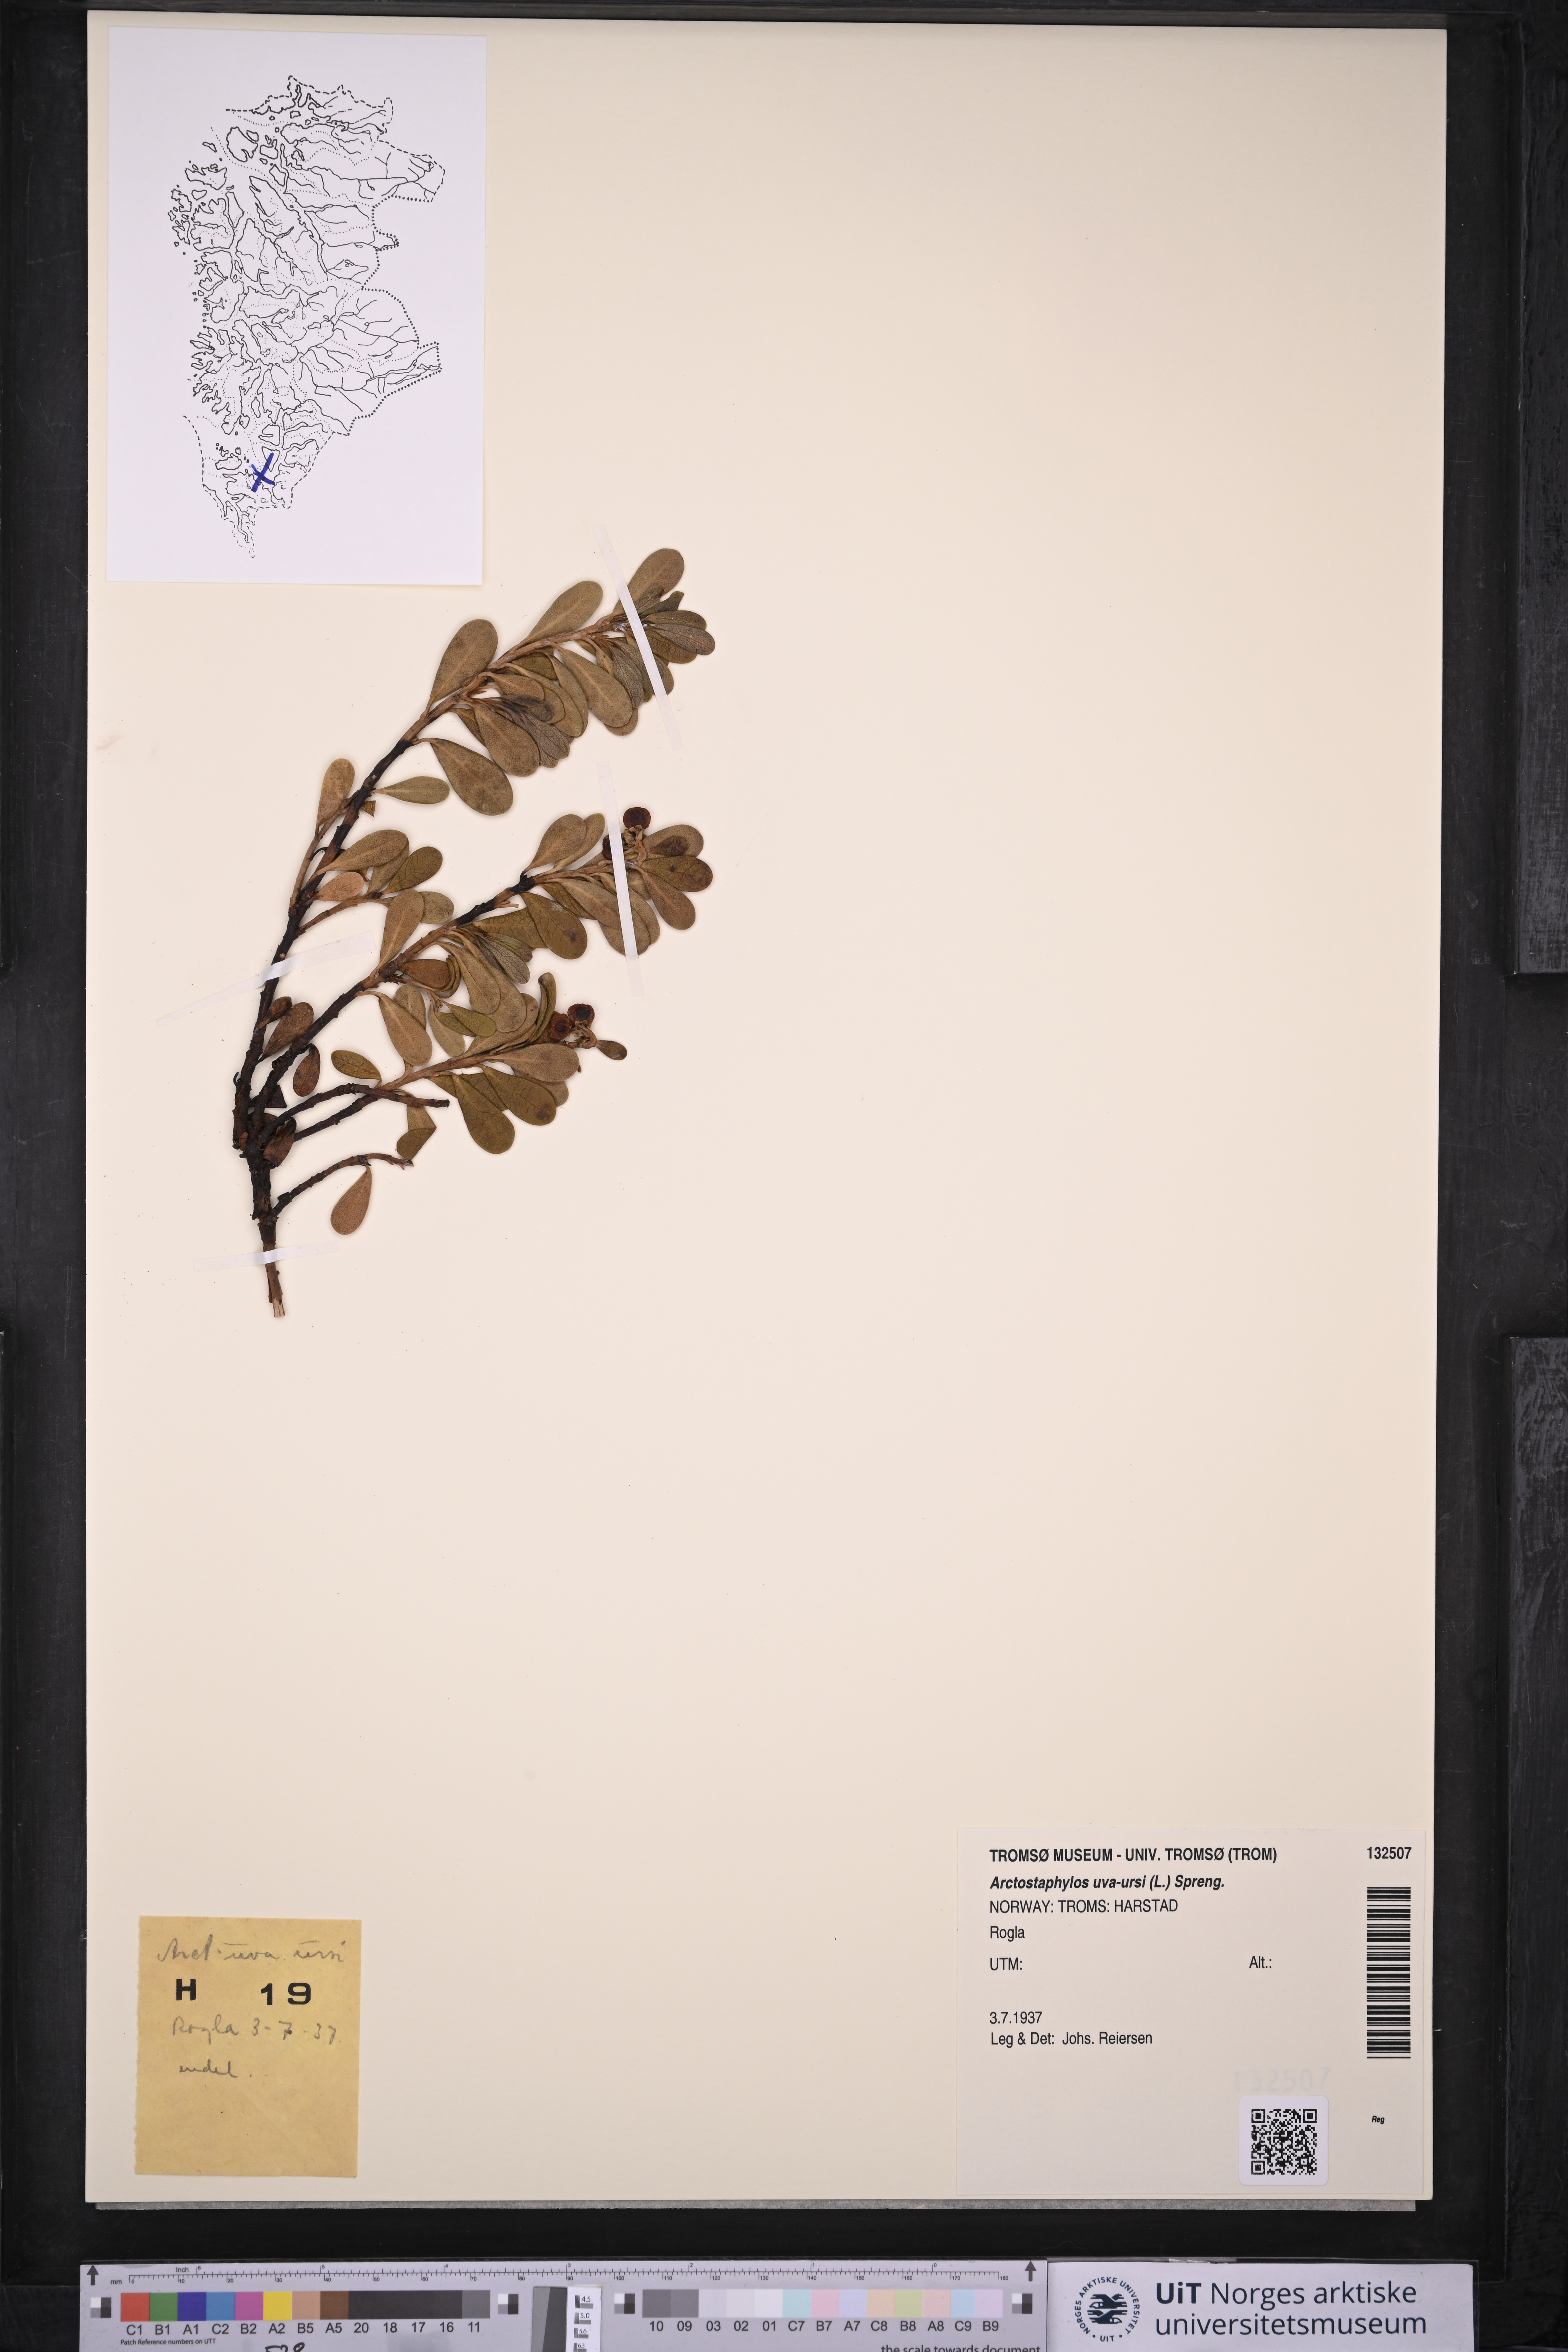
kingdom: Plantae
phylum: Tracheophyta
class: Magnoliopsida
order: Ericales
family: Ericaceae
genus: Arctostaphylos
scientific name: Arctostaphylos uva-ursi
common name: Bearberry
